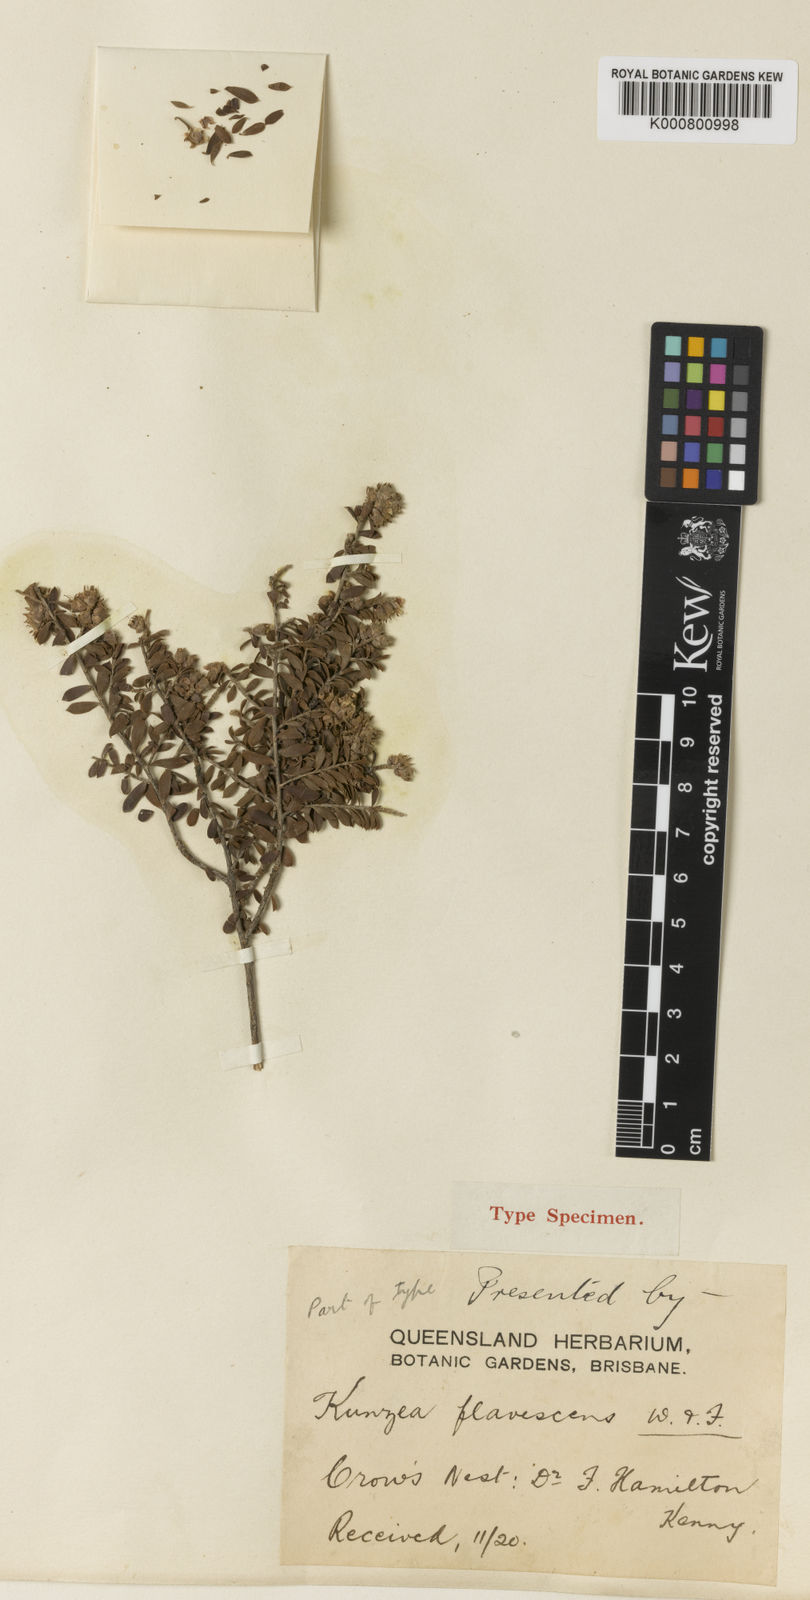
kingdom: Plantae
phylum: Tracheophyta
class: Magnoliopsida
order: Myrtales
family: Myrtaceae
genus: Kunzea
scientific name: Kunzea flavescens
